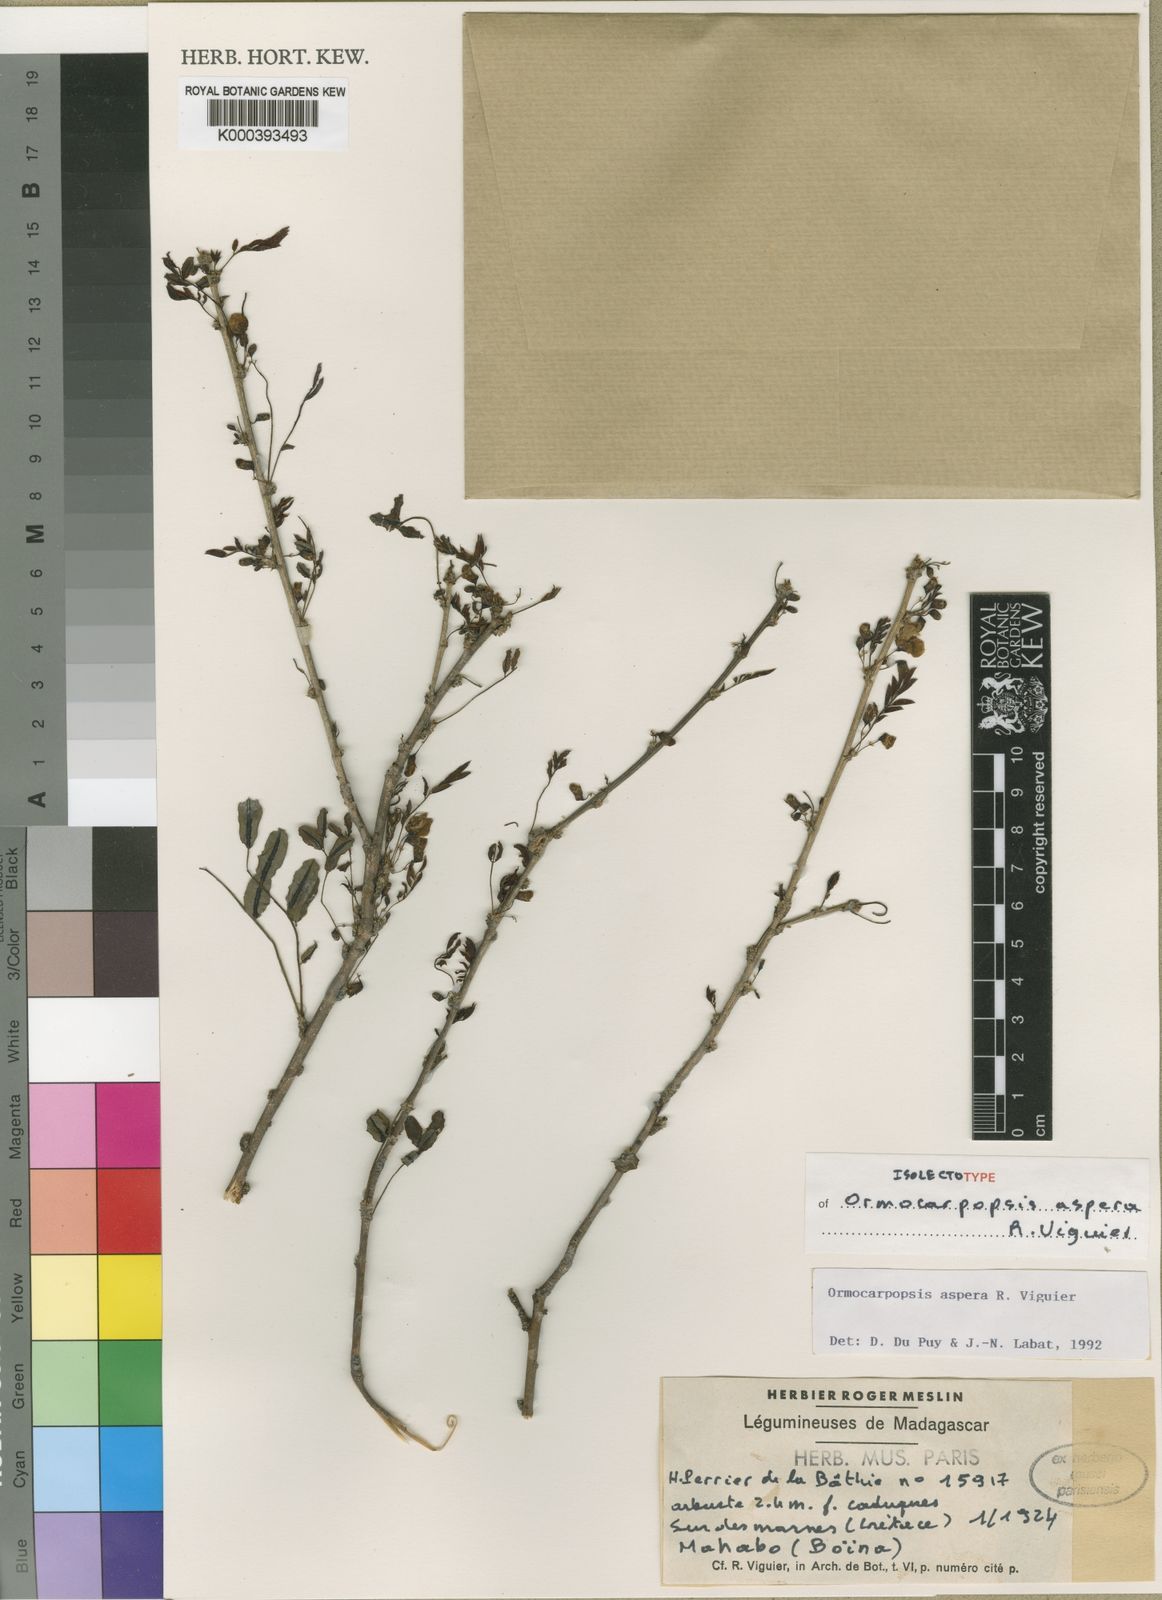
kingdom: Plantae
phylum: Tracheophyta
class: Magnoliopsida
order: Fabales
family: Fabaceae
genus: Ormocarpopsis
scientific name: Ormocarpopsis aspera
